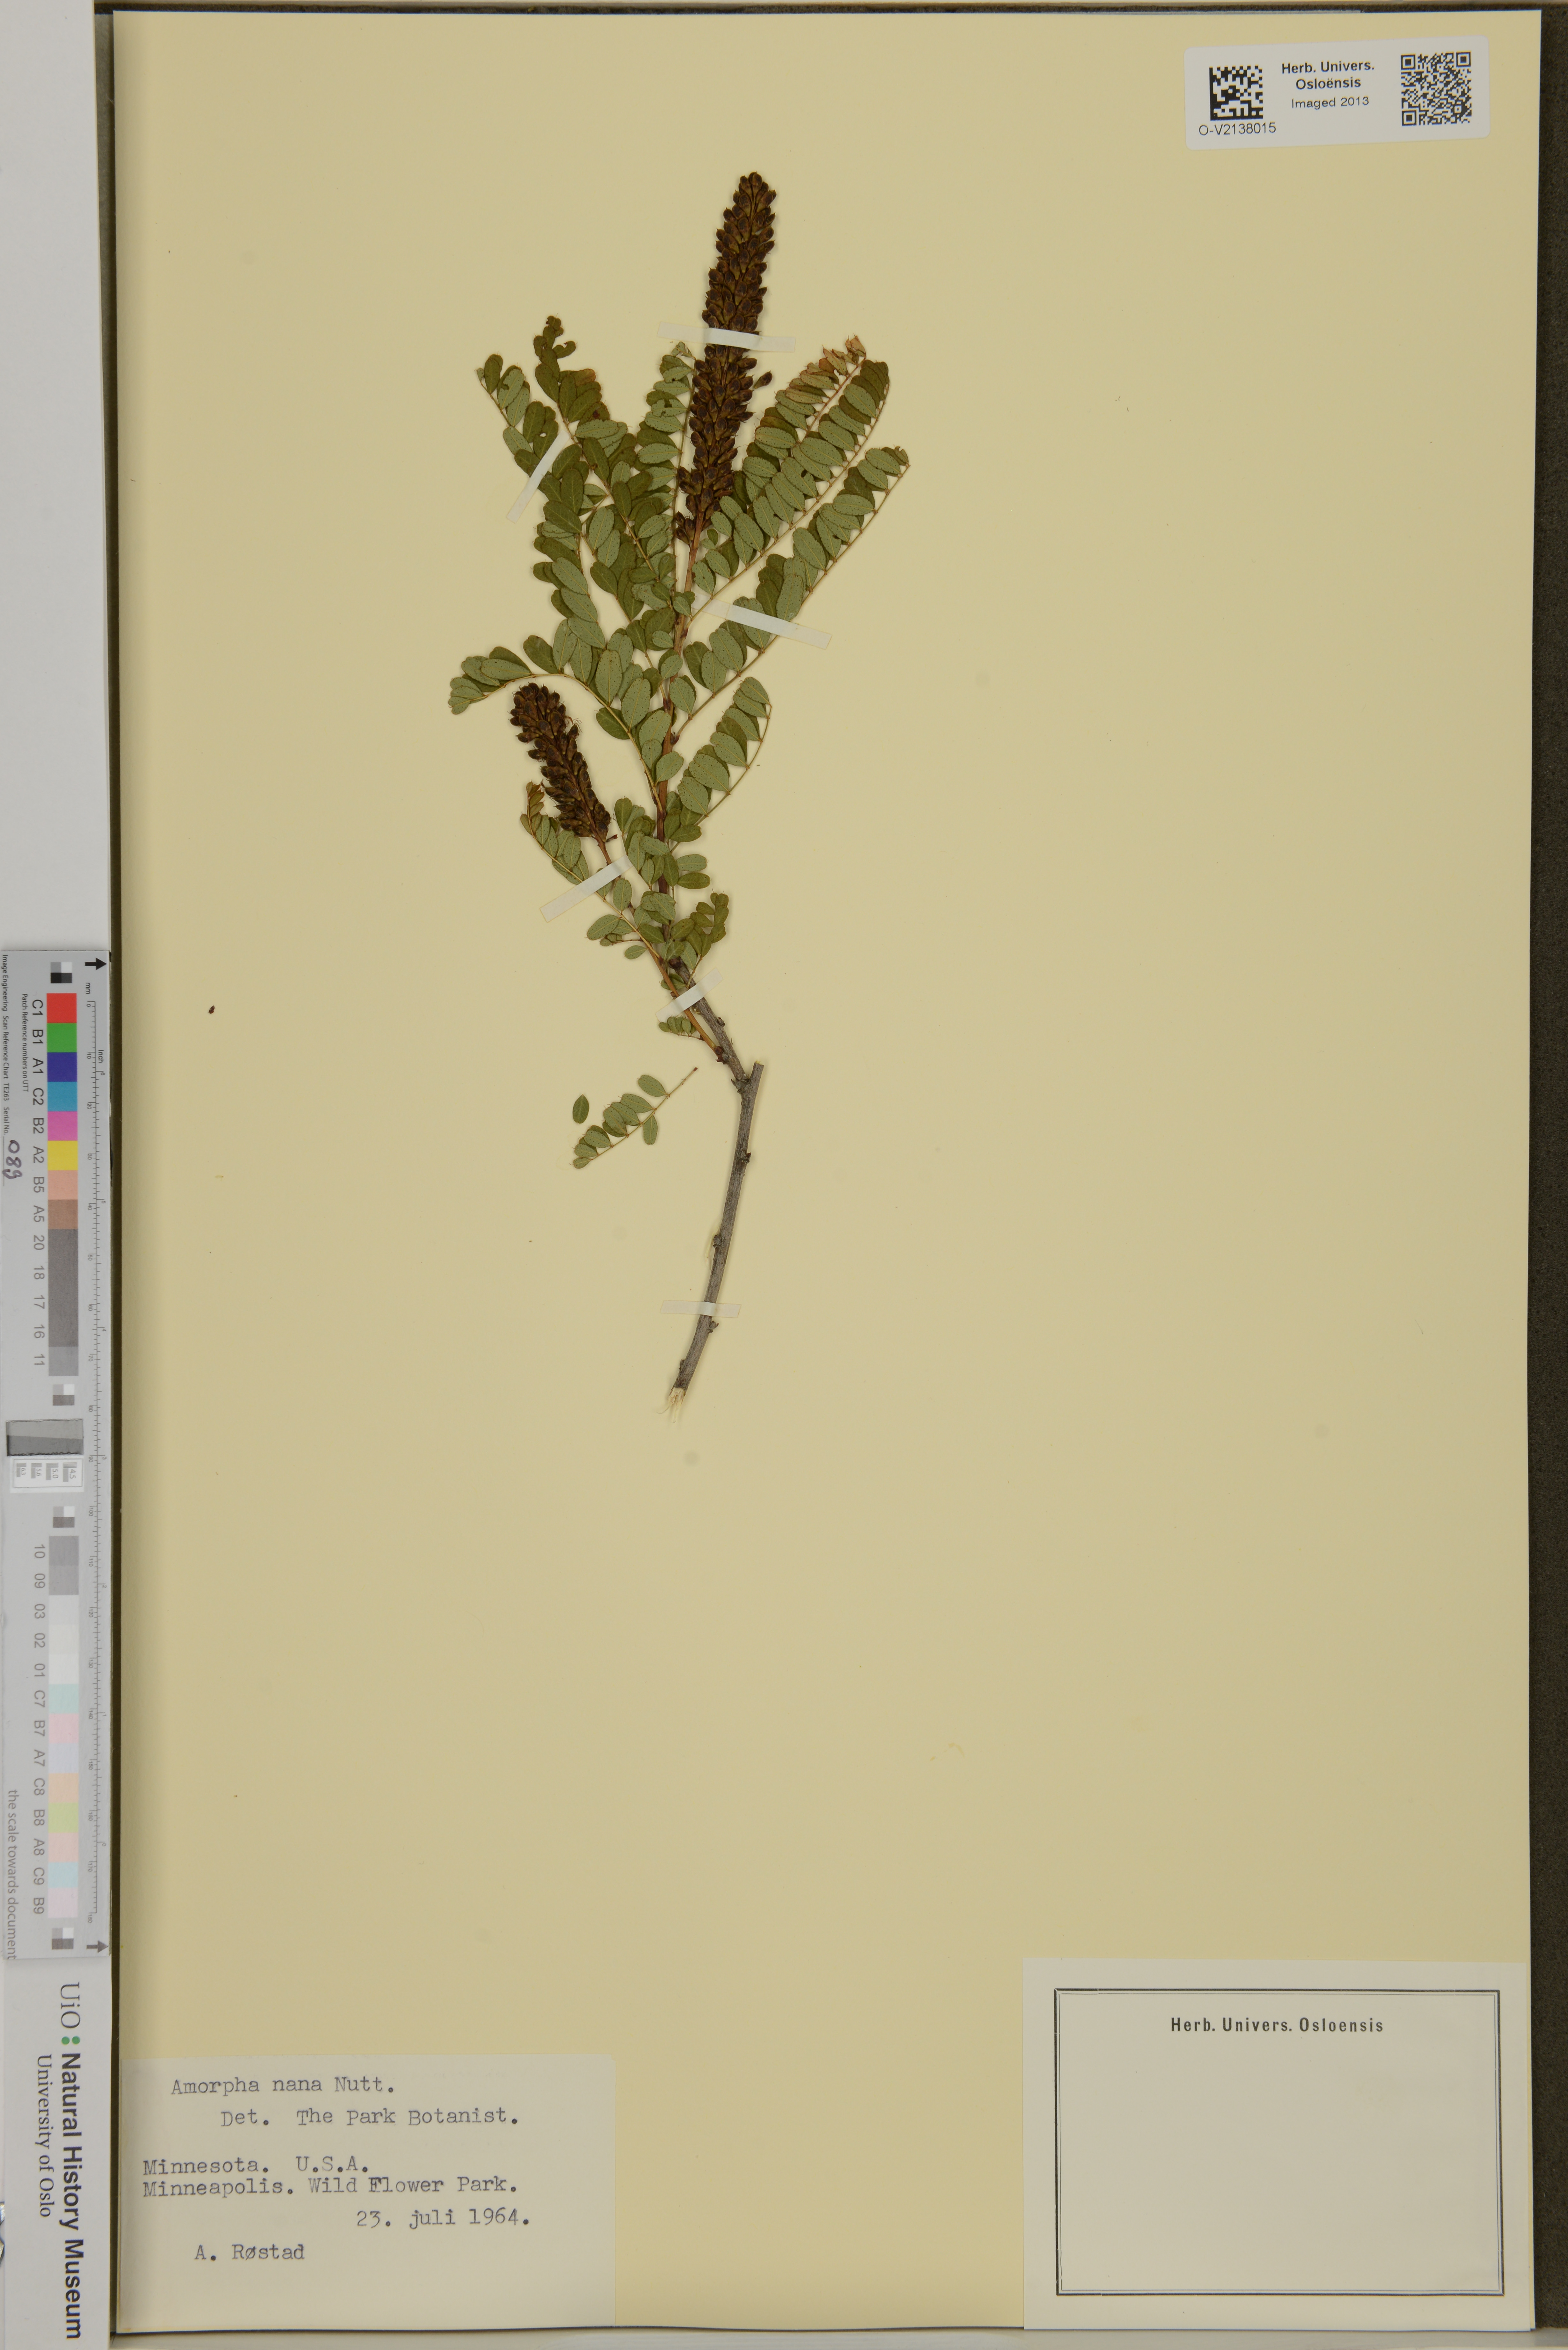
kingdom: Plantae
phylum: Tracheophyta
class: Magnoliopsida
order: Fabales
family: Fabaceae
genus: Amorpha
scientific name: Amorpha nana
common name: Fragrant false indigo
